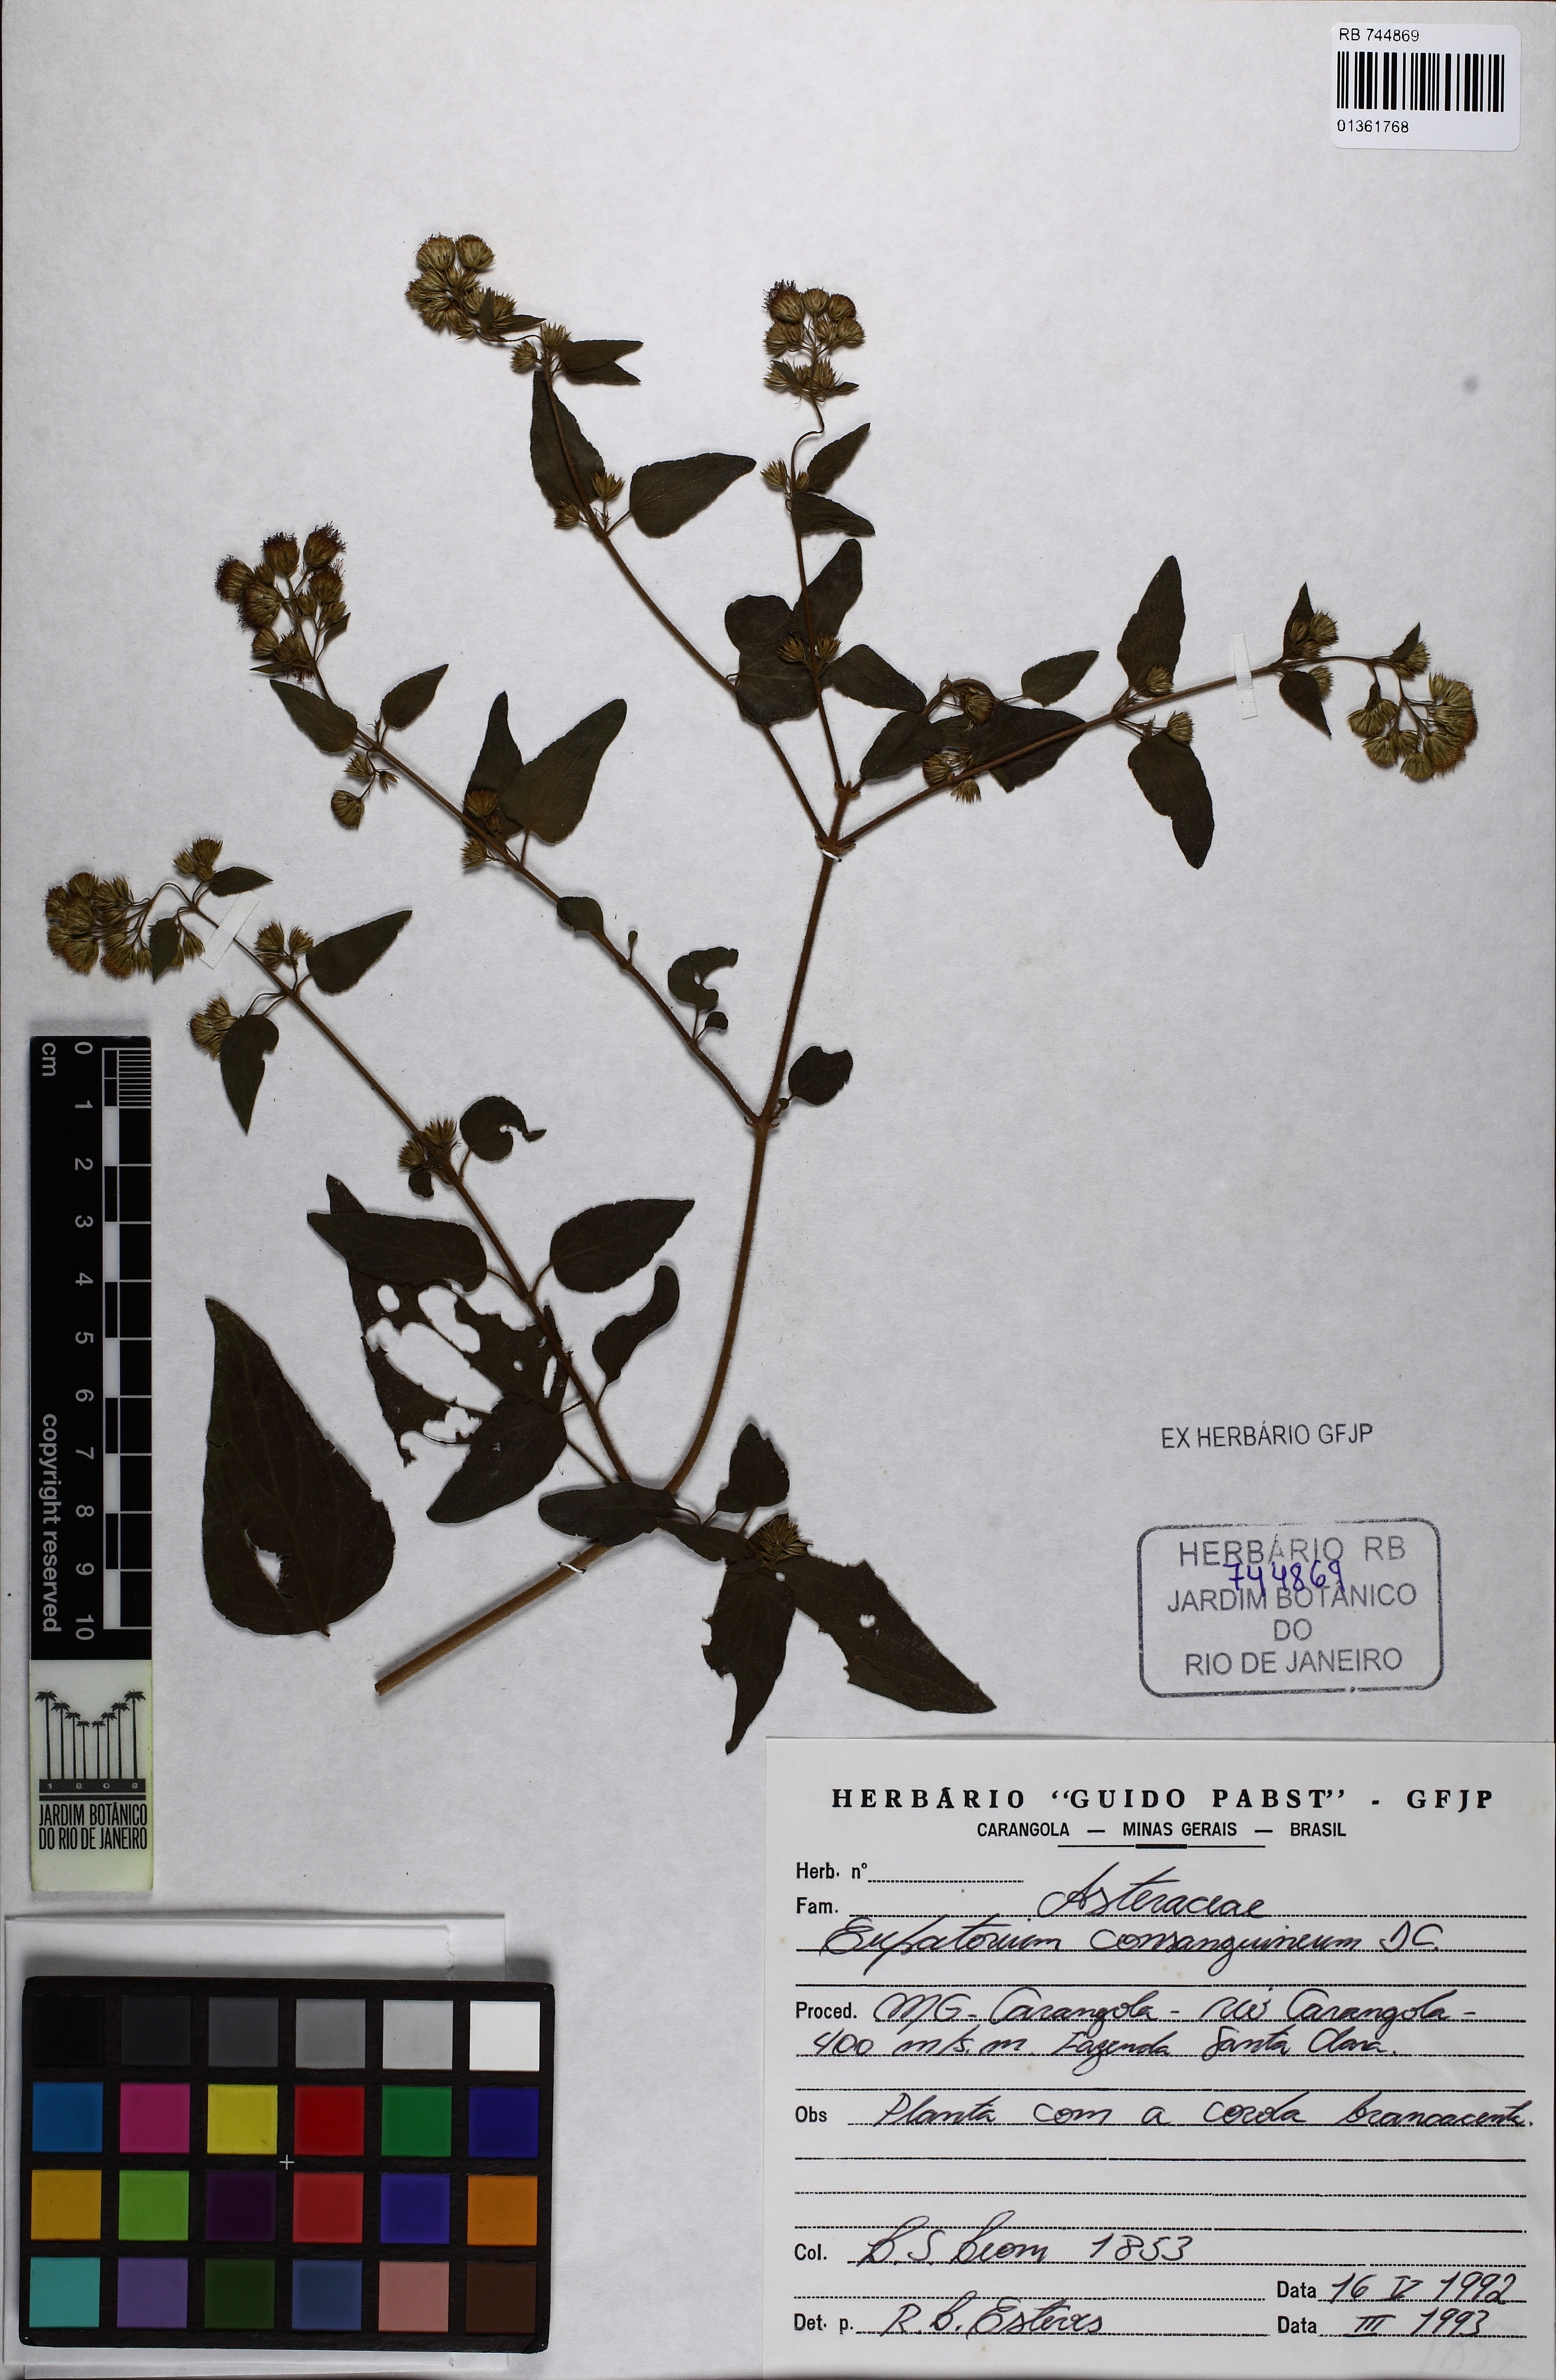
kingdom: Plantae
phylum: Tracheophyta
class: Magnoliopsida
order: Asterales
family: Asteraceae
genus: Koanophyllon
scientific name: Koanophyllon consanguineum
